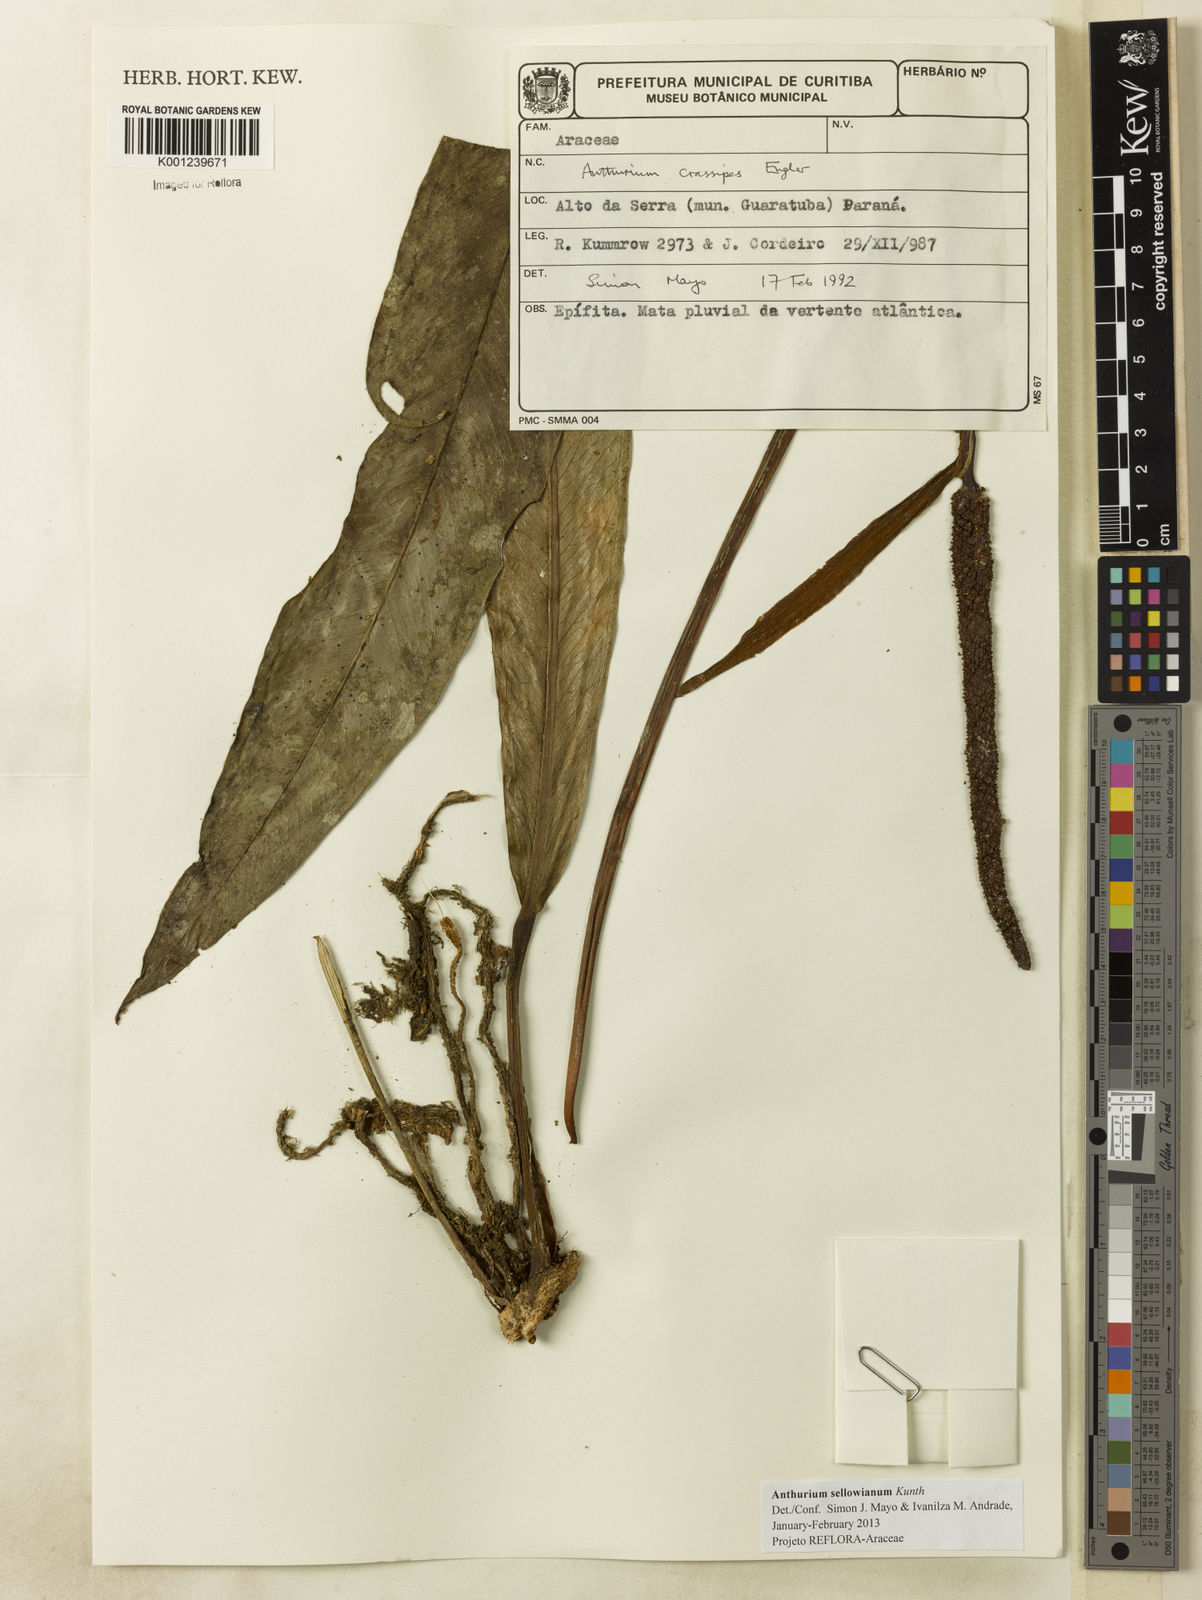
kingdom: Plantae
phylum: Tracheophyta
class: Liliopsida
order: Alismatales
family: Araceae
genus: Anthurium
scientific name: Anthurium sellowianum
